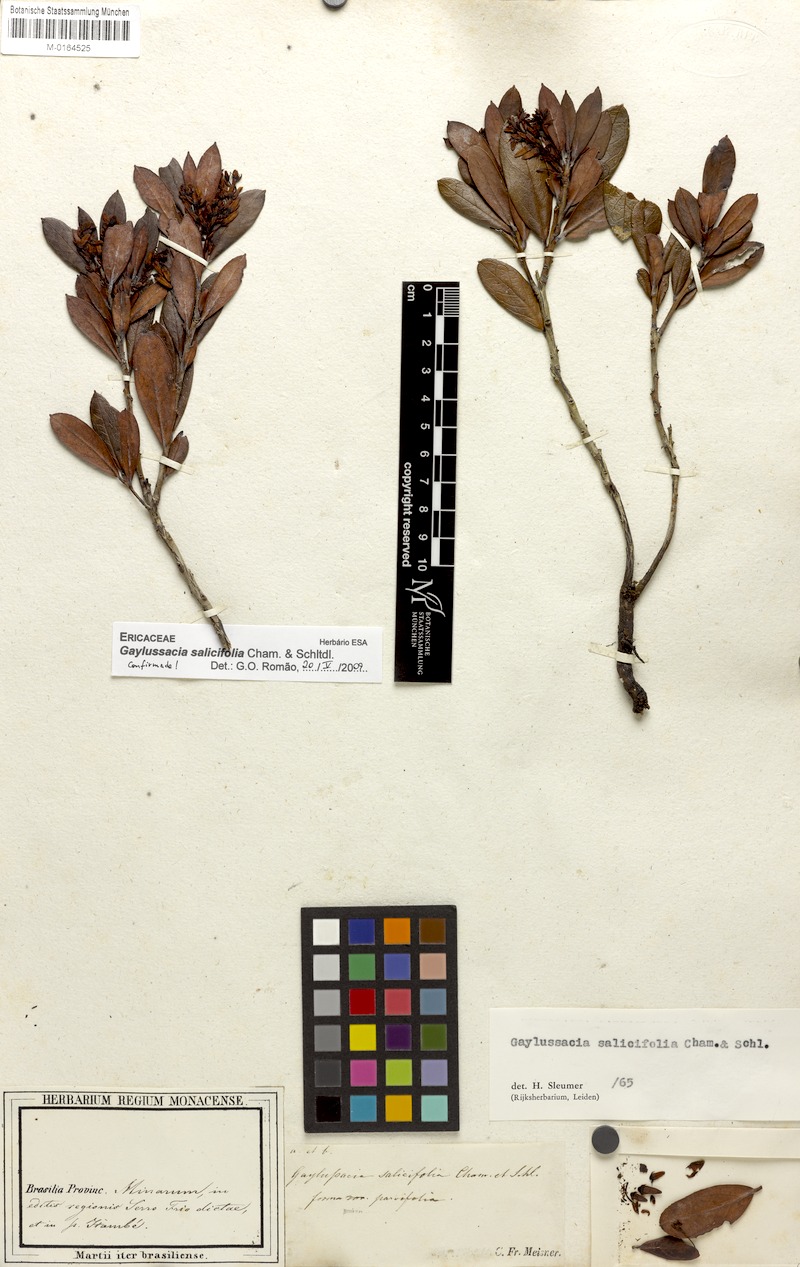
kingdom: Plantae
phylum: Tracheophyta
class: Magnoliopsida
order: Ericales
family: Ericaceae
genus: Gaylussacia
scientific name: Gaylussacia salicifolia
